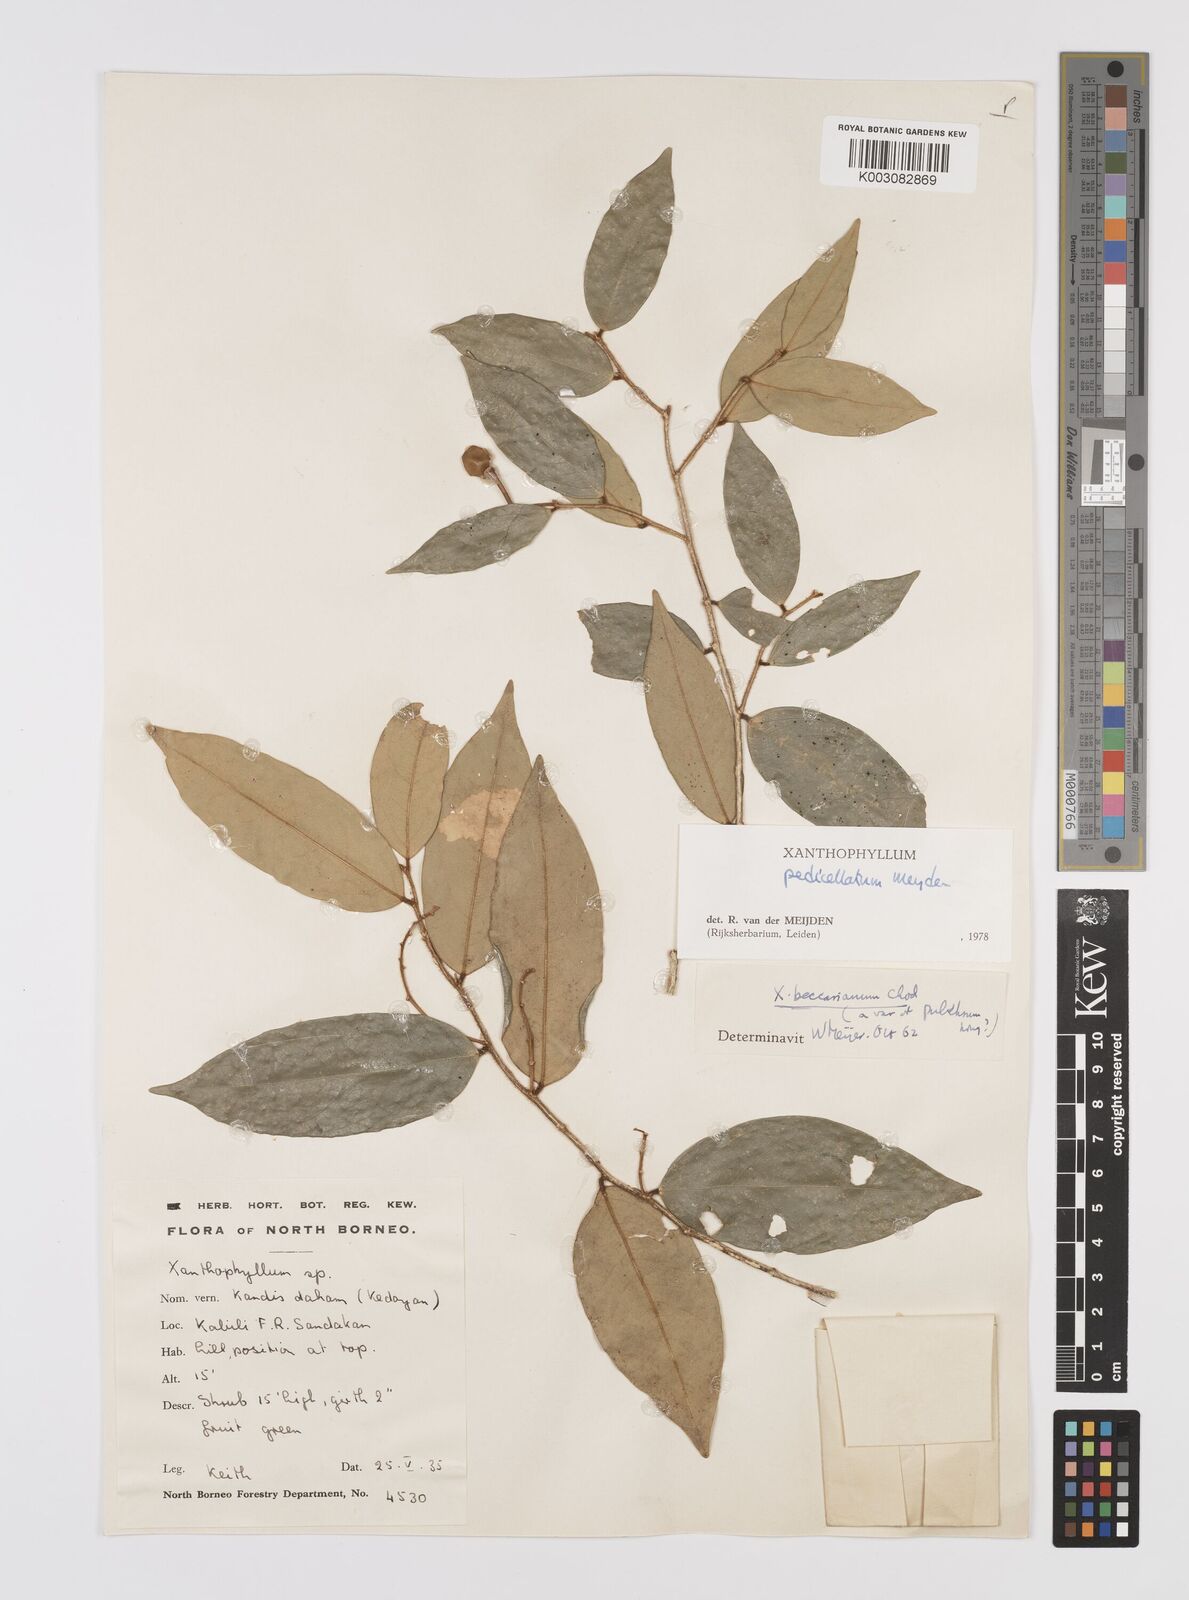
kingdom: Plantae
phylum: Tracheophyta
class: Magnoliopsida
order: Fabales
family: Polygalaceae
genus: Xanthophyllum
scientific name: Xanthophyllum pedicellatum
